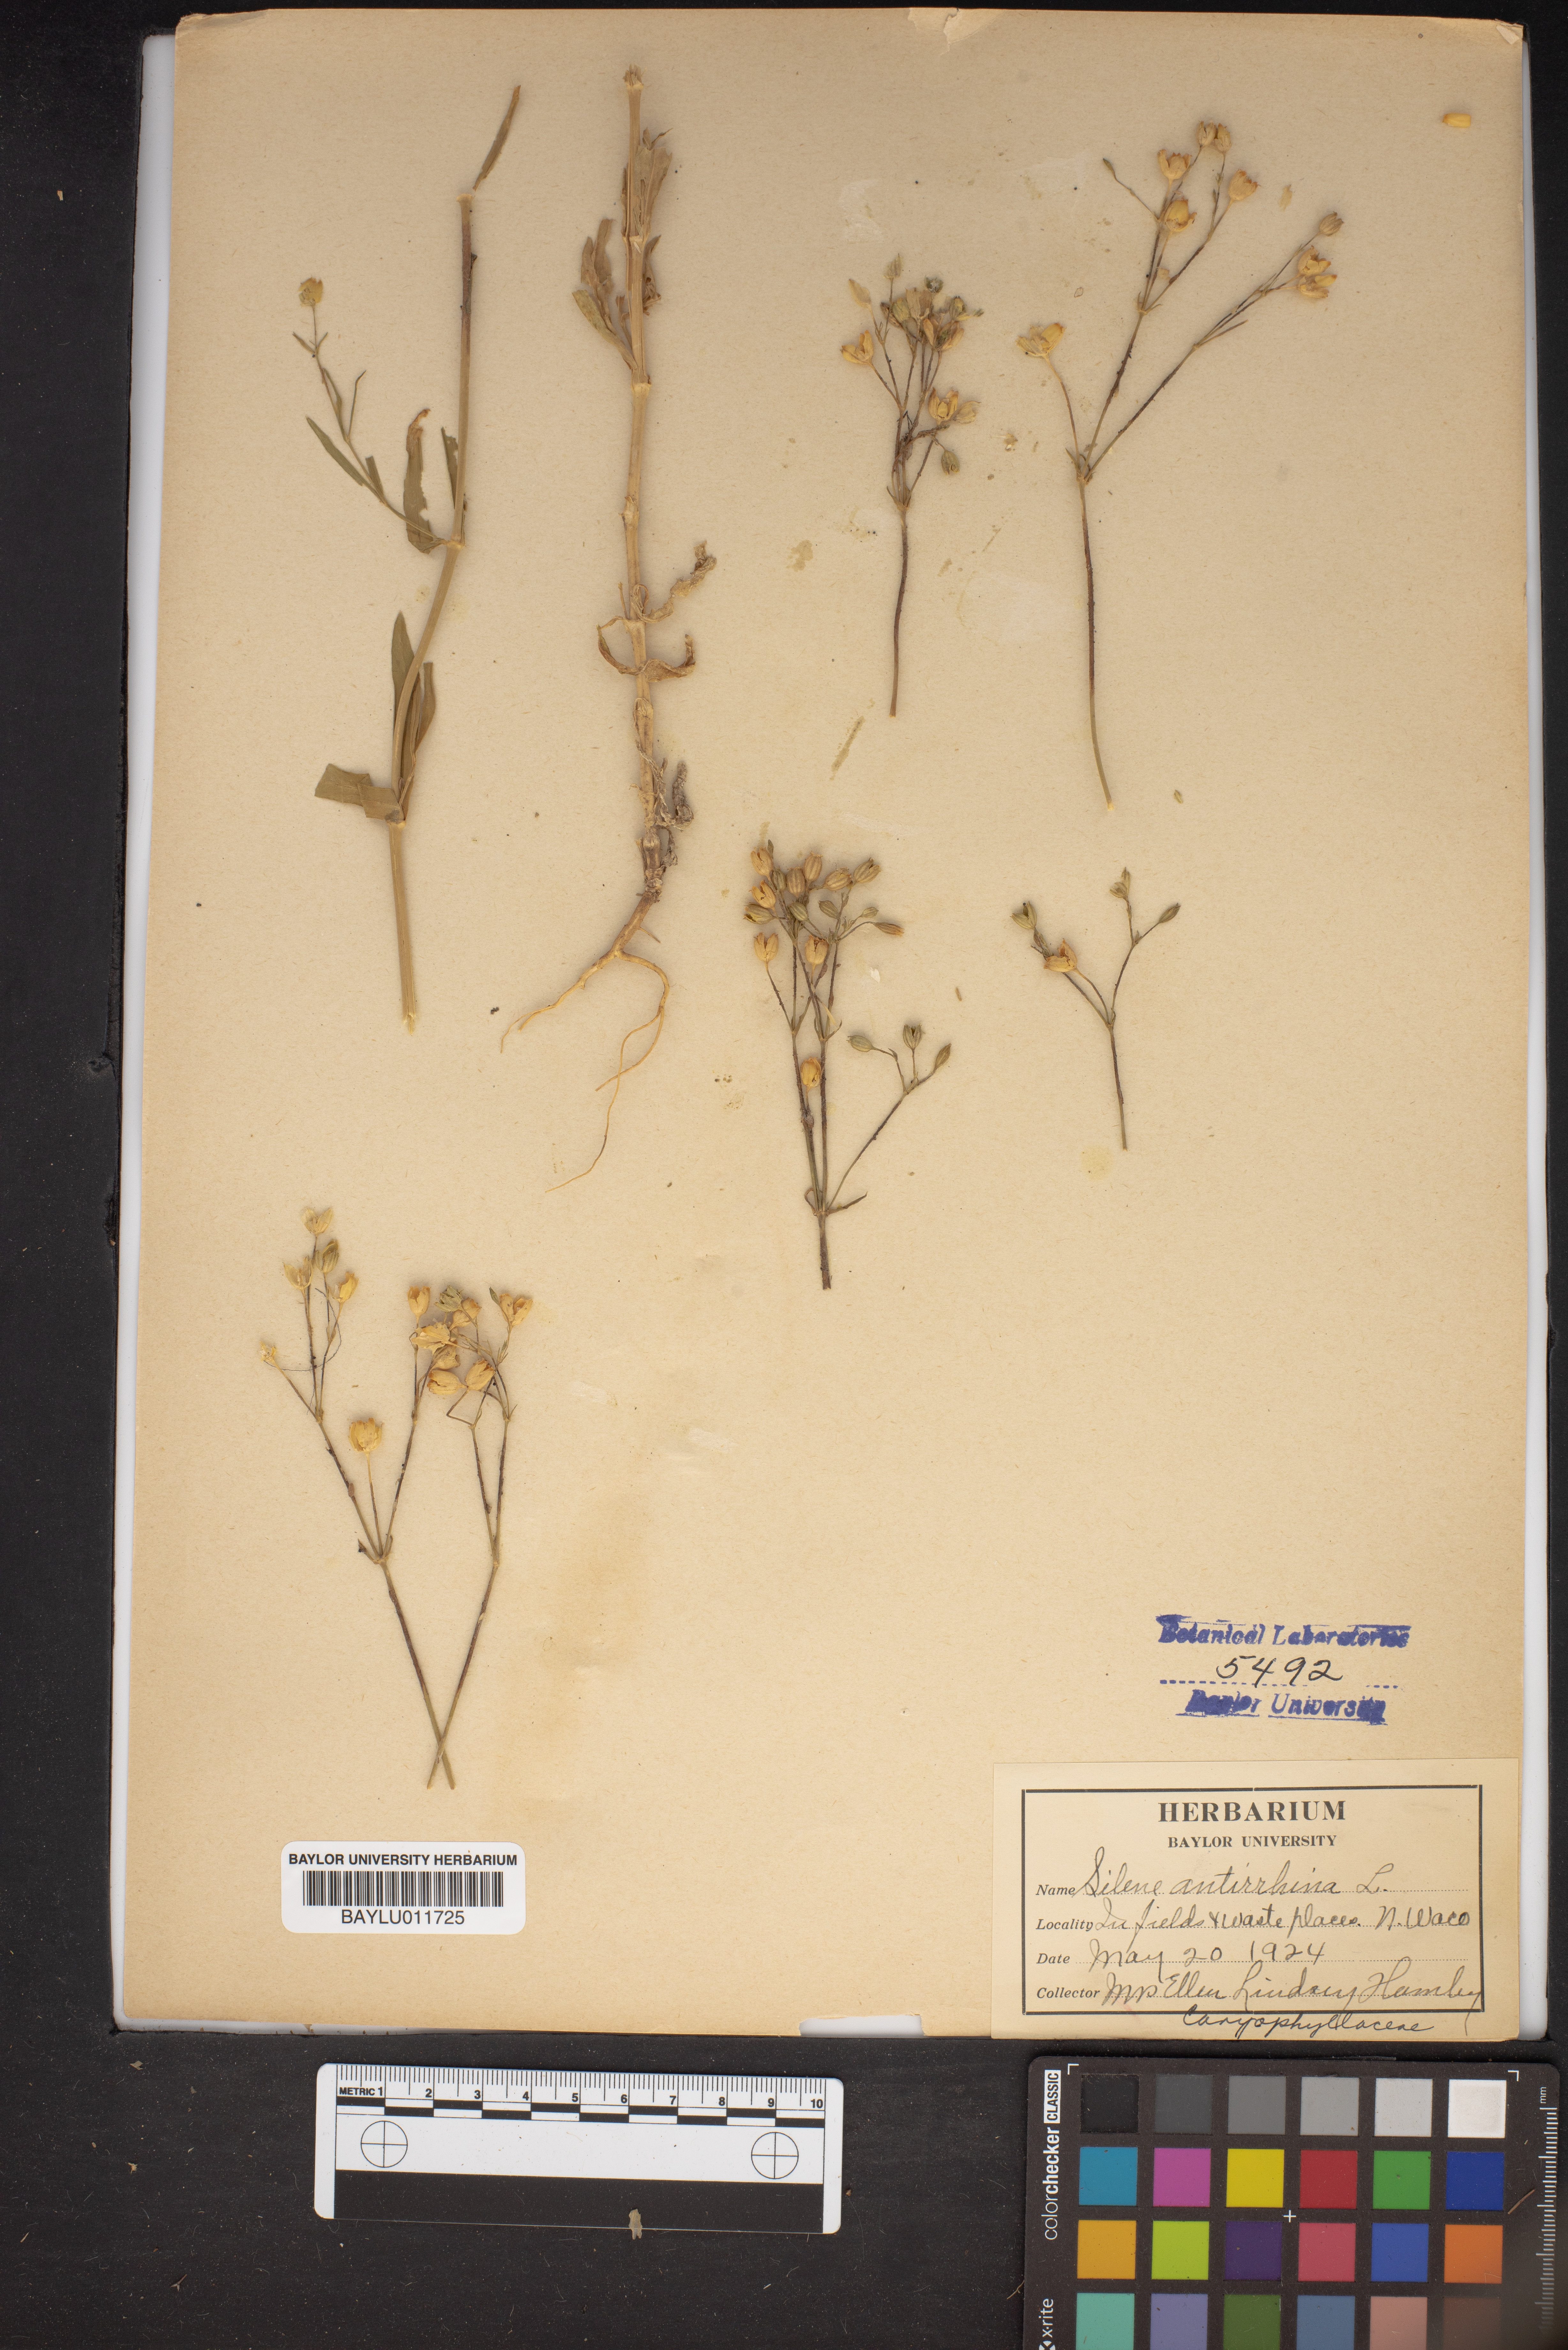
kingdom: Plantae
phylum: Tracheophyta
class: Magnoliopsida
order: Caryophyllales
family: Caryophyllaceae
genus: Silene
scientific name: Silene antirrhina
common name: Sleepy catchfly
